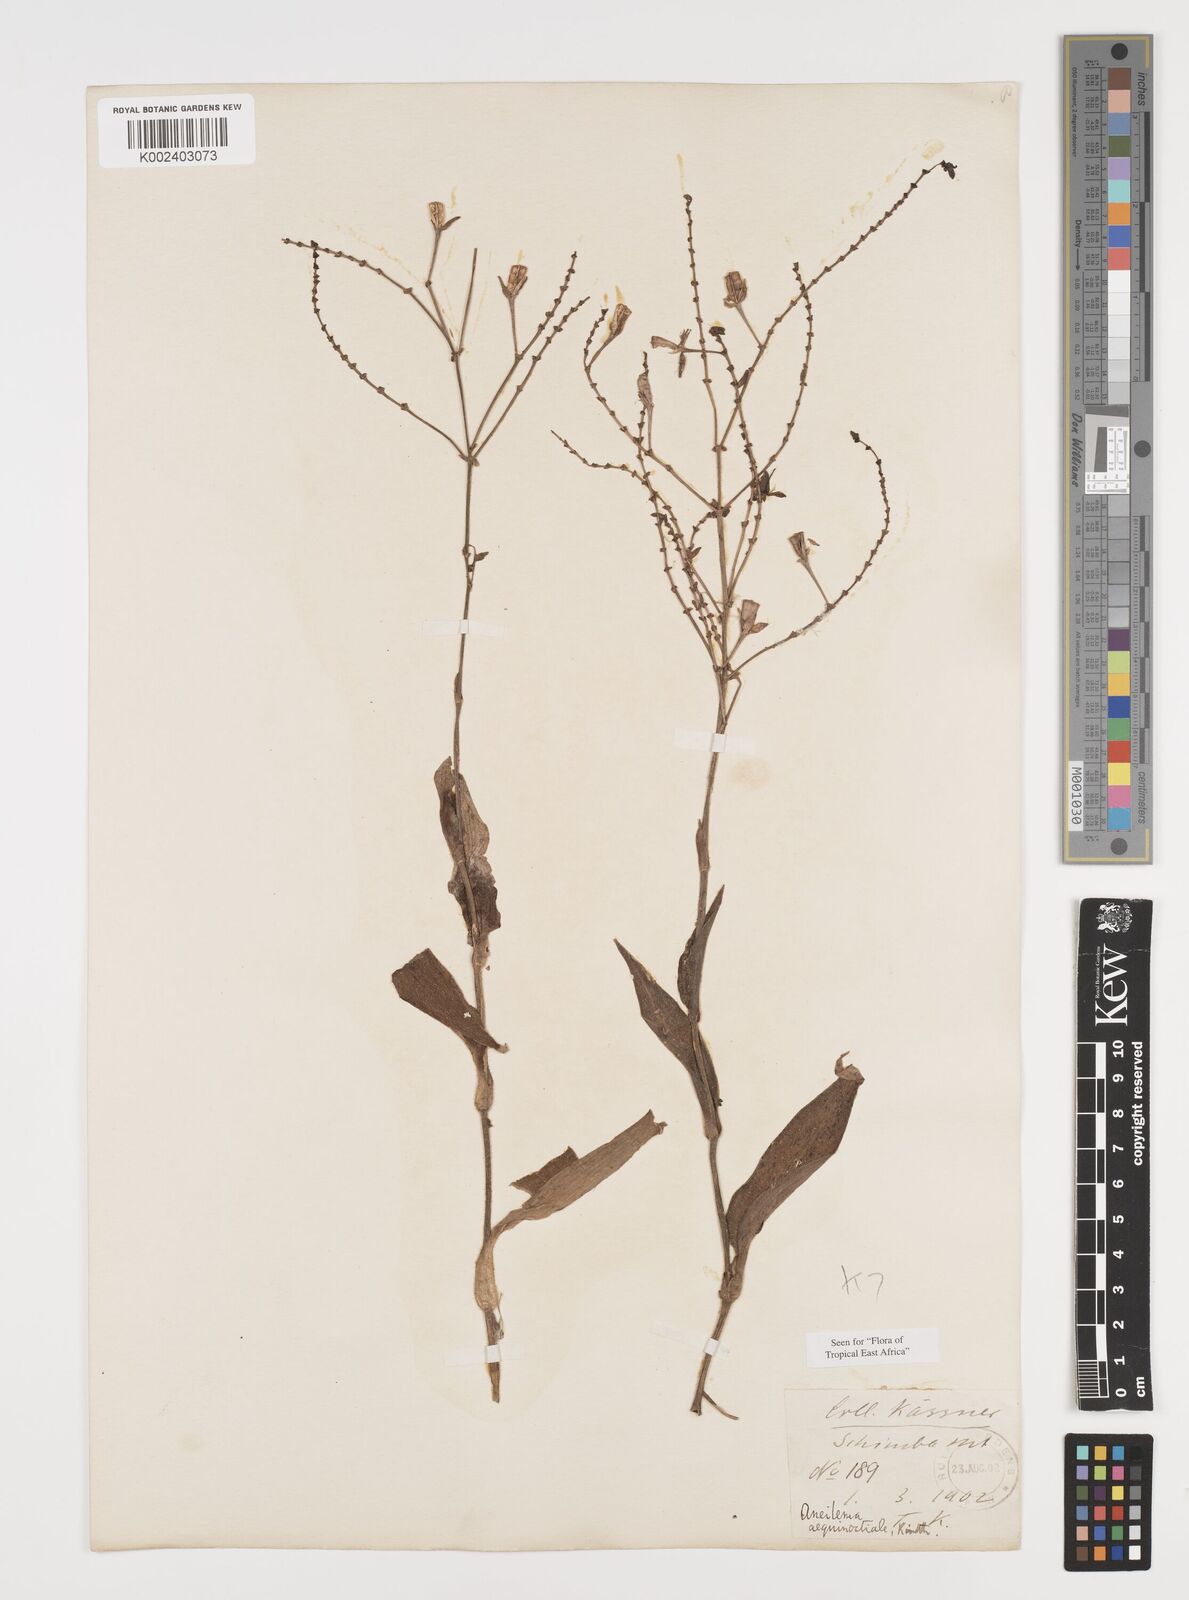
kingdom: Plantae
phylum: Tracheophyta
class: Liliopsida
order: Commelinales
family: Commelinaceae
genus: Aneilema
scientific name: Aneilema aequinoctiale
